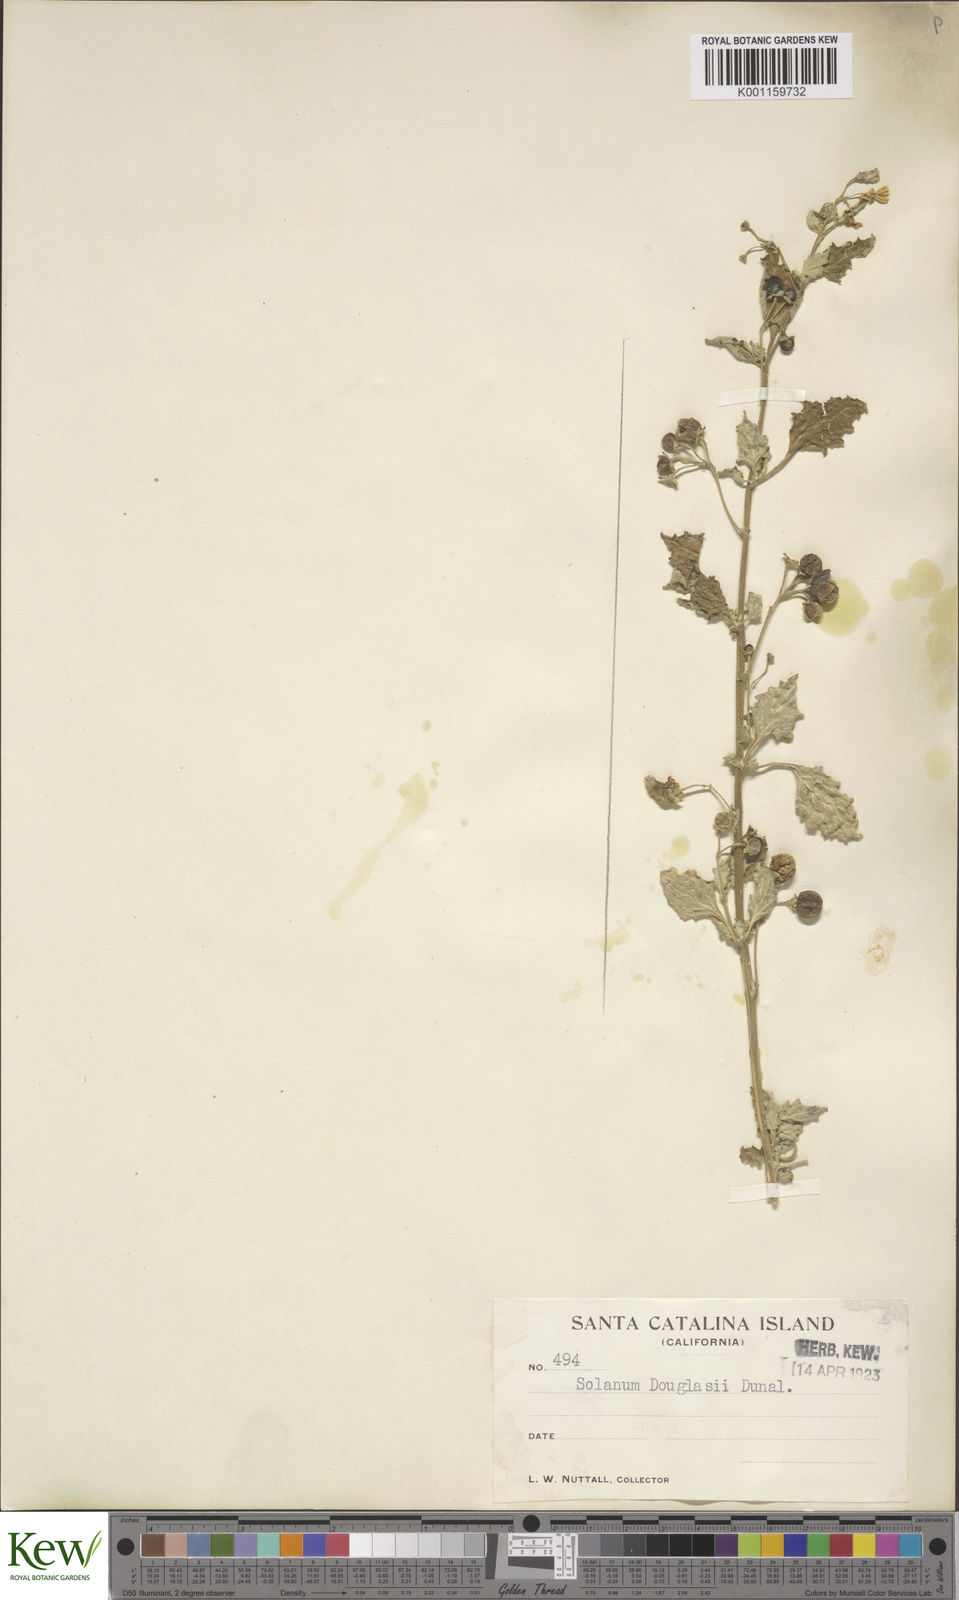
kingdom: Plantae
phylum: Tracheophyta
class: Magnoliopsida
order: Solanales
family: Solanaceae
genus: Solanum
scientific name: Solanum douglasii
